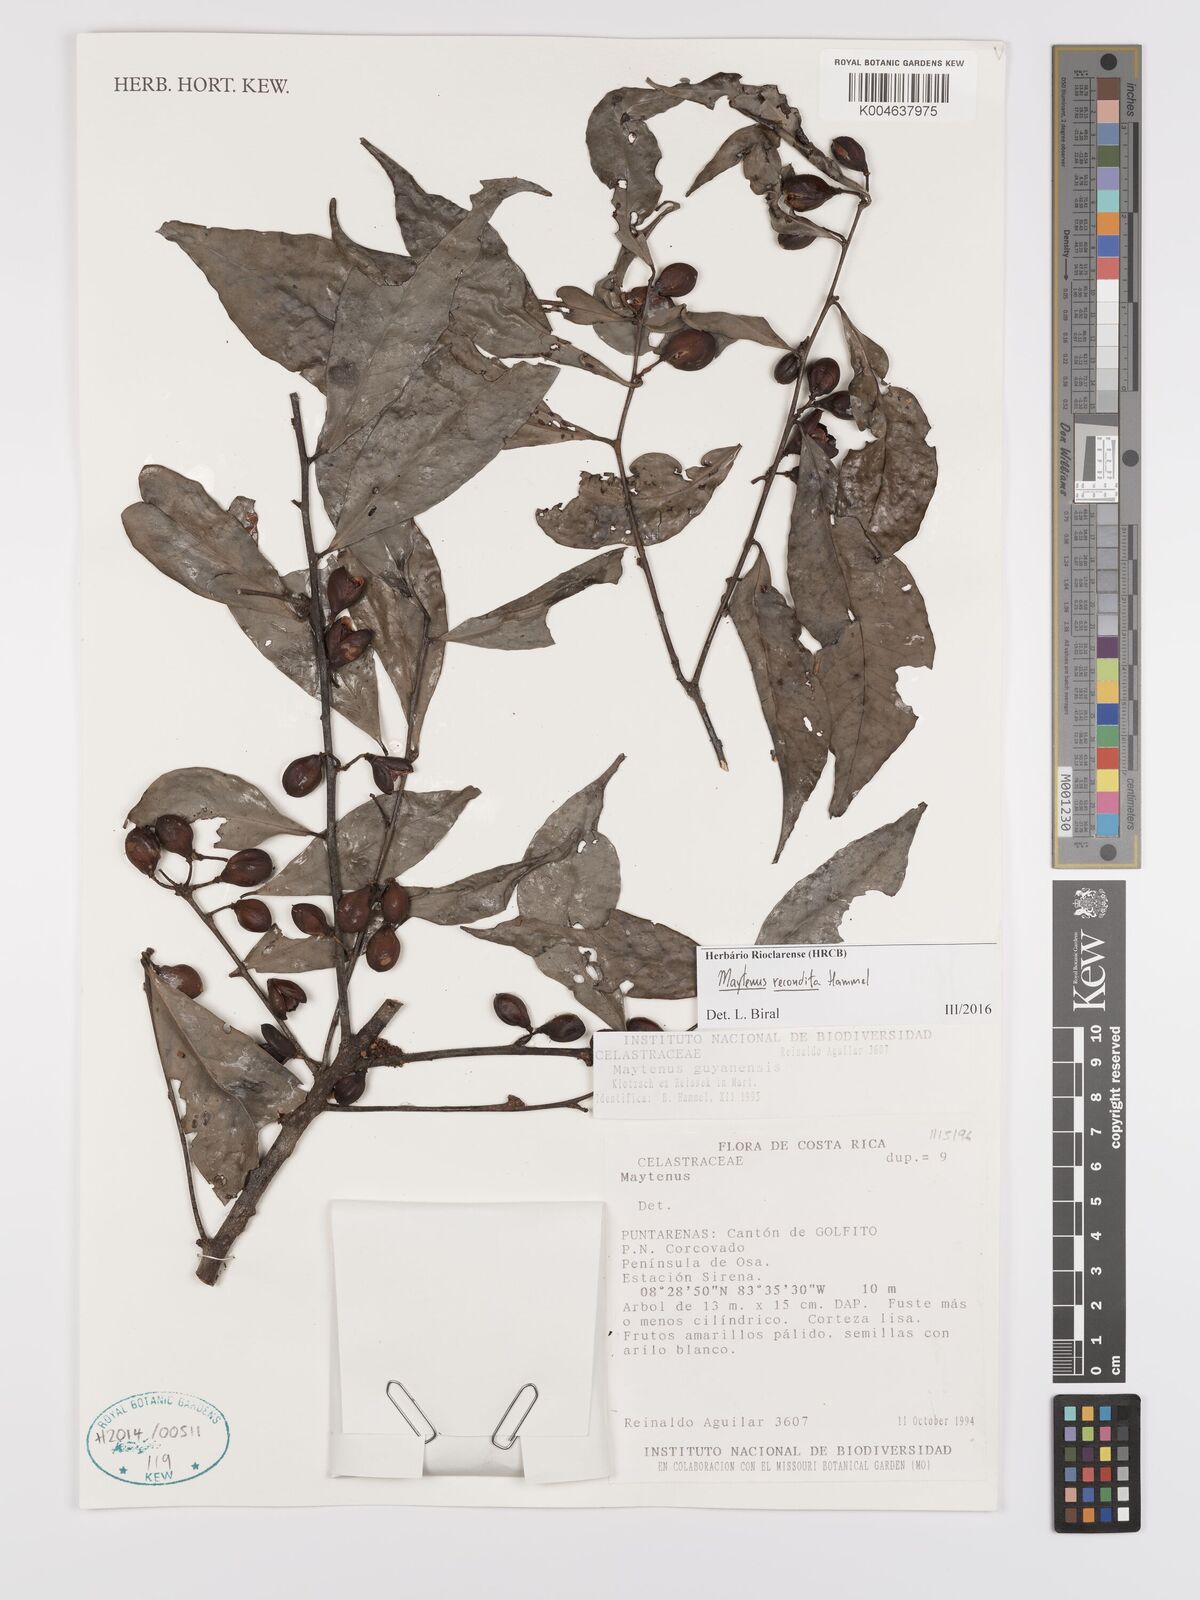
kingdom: Plantae
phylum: Tracheophyta
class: Magnoliopsida
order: Celastrales
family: Celastraceae
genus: Maytenus
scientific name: Maytenus
